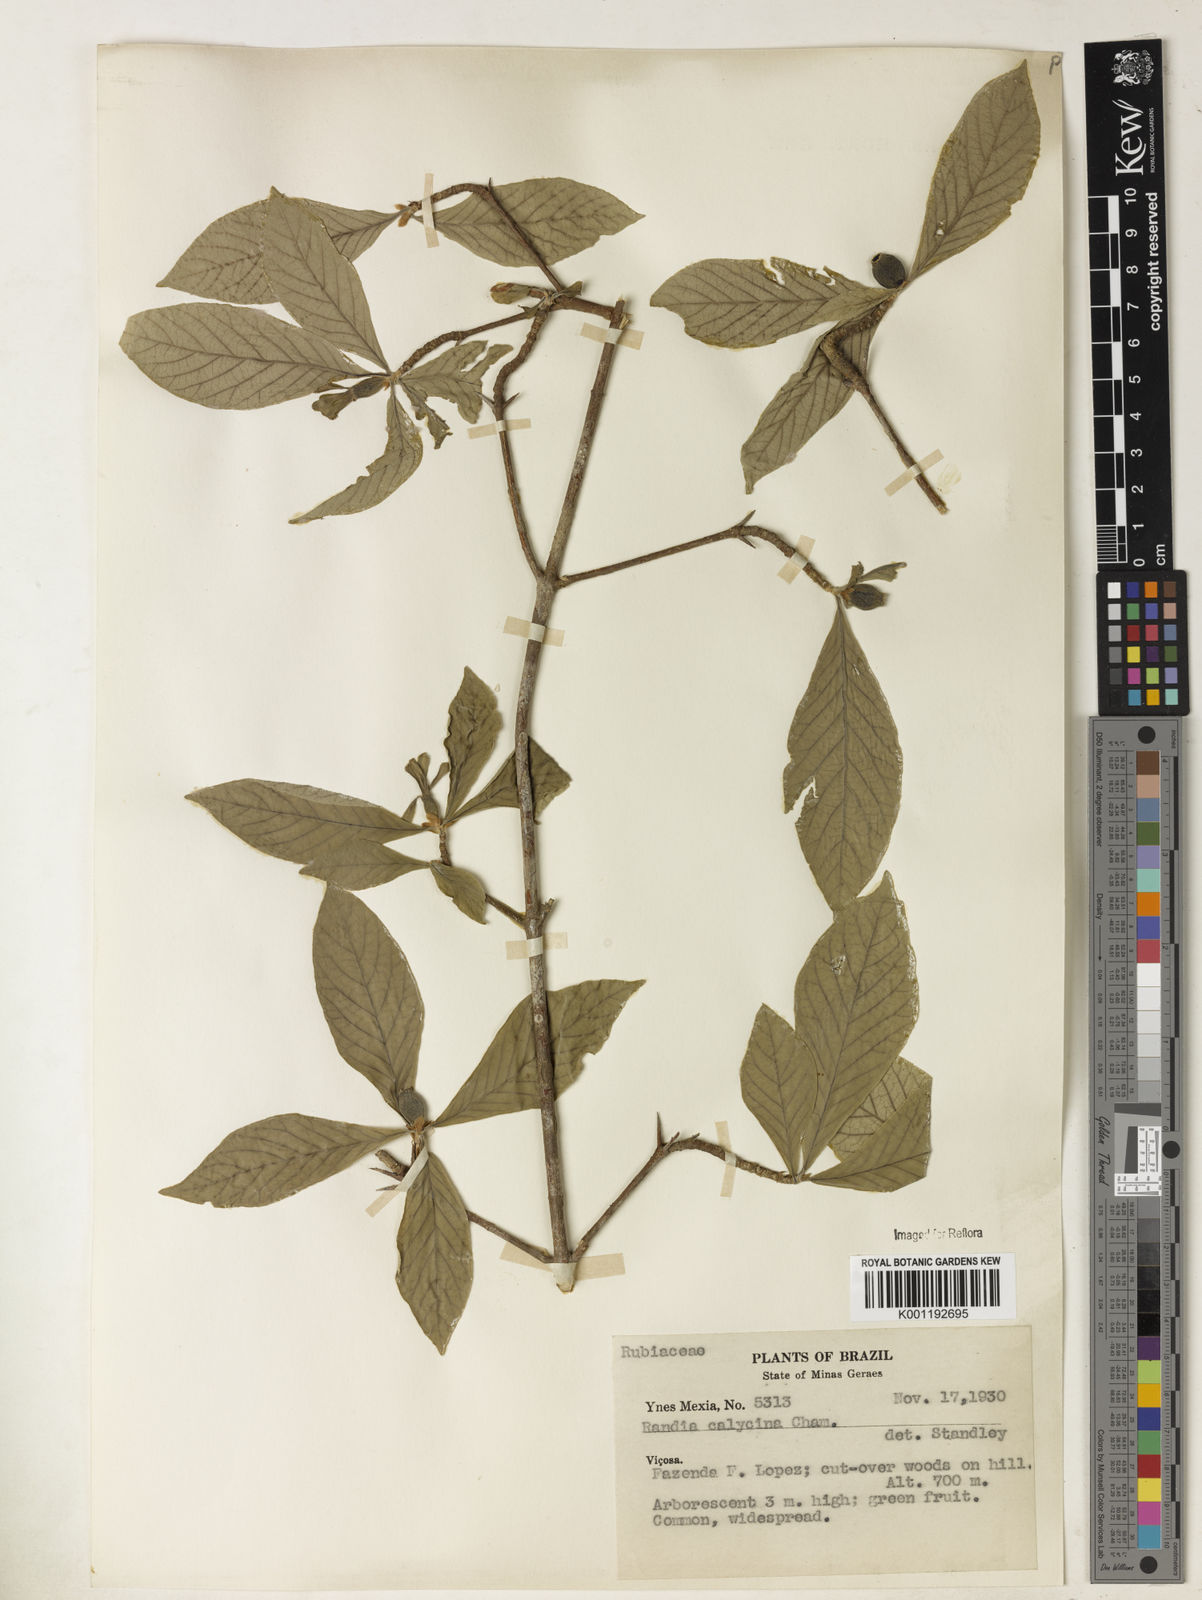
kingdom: Plantae
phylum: Tracheophyta
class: Magnoliopsida
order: Gentianales
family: Rubiaceae
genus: Randia
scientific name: Randia calycina
